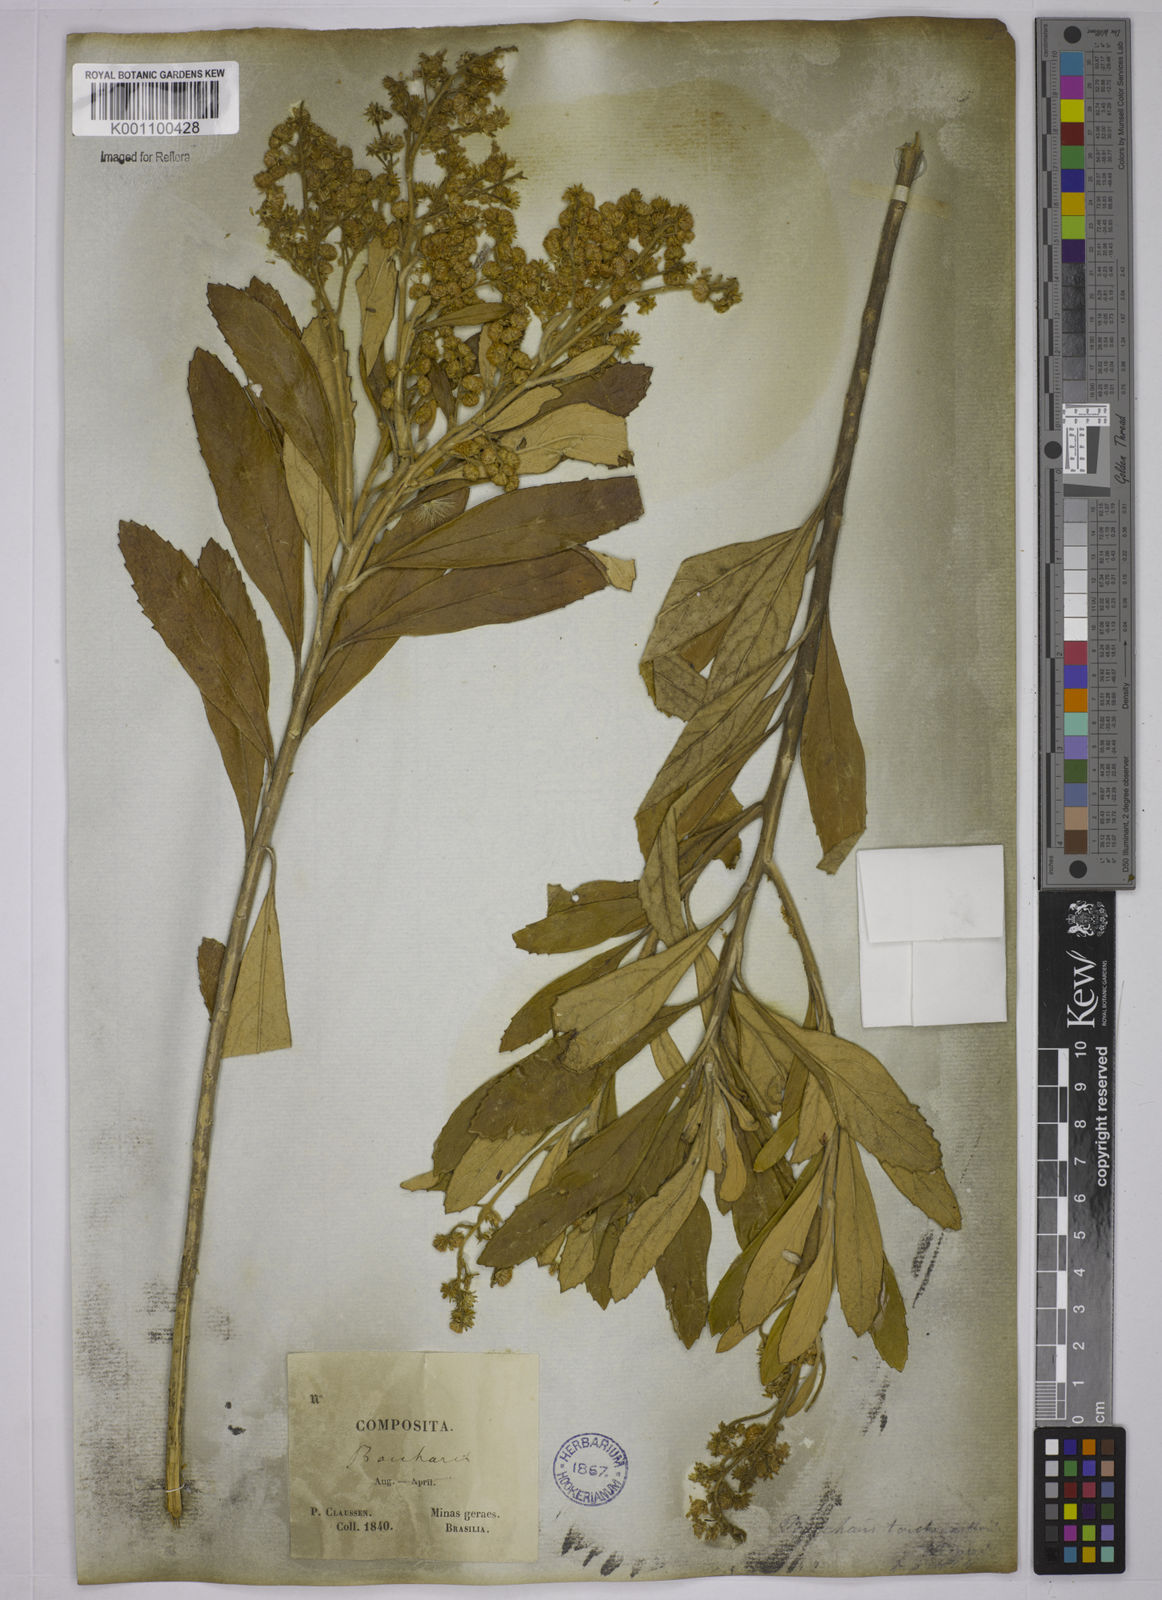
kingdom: Plantae
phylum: Tracheophyta
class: Magnoliopsida
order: Asterales
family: Asteraceae
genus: Baccharis
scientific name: Baccharis
